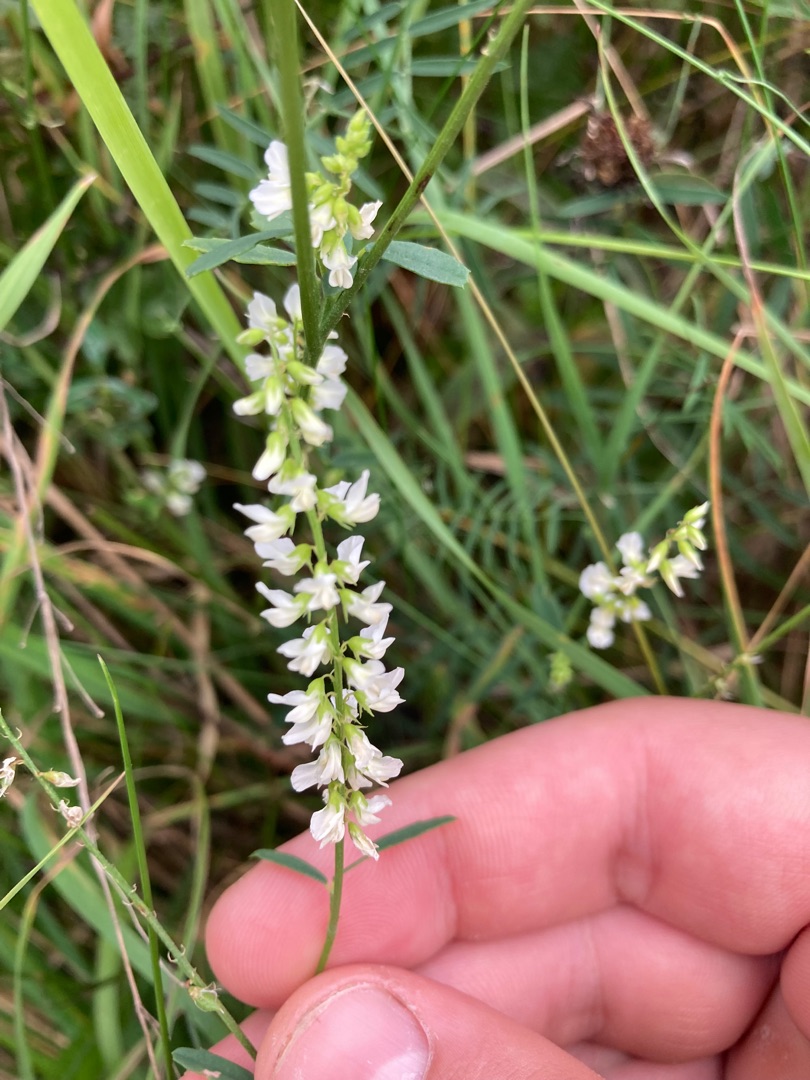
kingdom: Plantae
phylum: Tracheophyta
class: Magnoliopsida
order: Fabales
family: Fabaceae
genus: Melilotus
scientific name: Melilotus albus
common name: Hvid stenkløver
